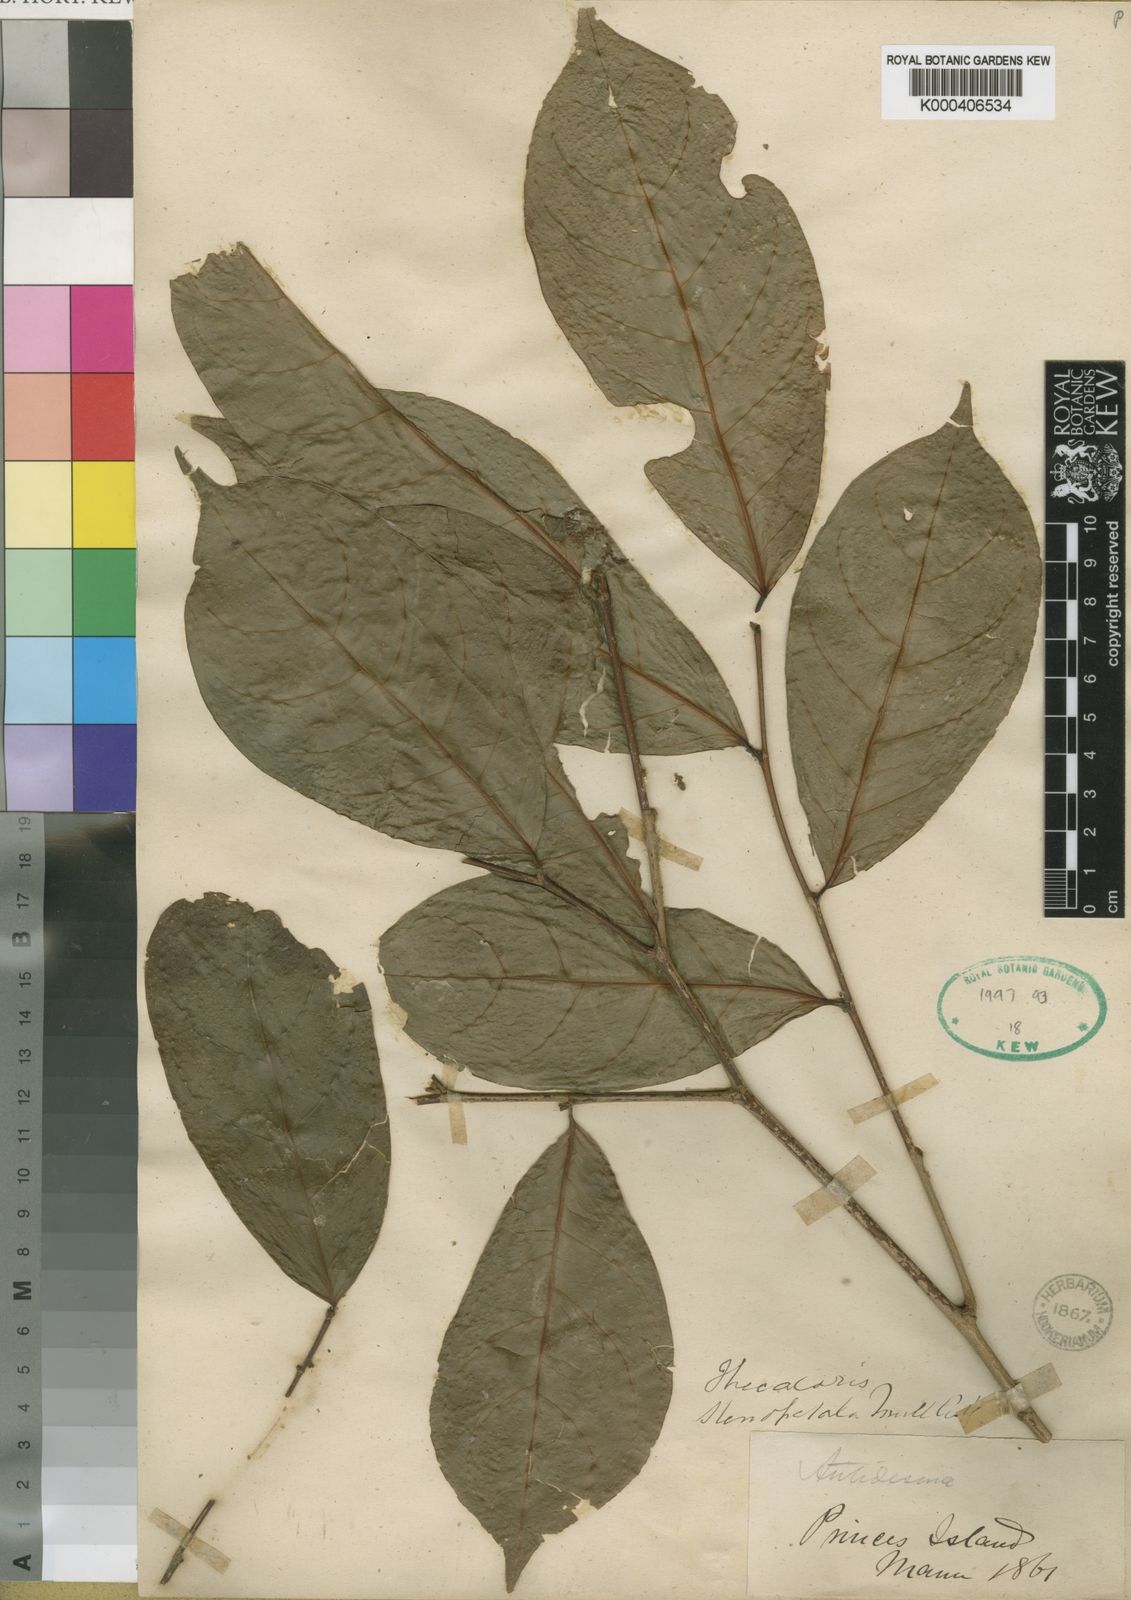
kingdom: Plantae
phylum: Tracheophyta
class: Magnoliopsida
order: Malpighiales
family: Phyllanthaceae
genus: Thecacoris
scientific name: Thecacoris
